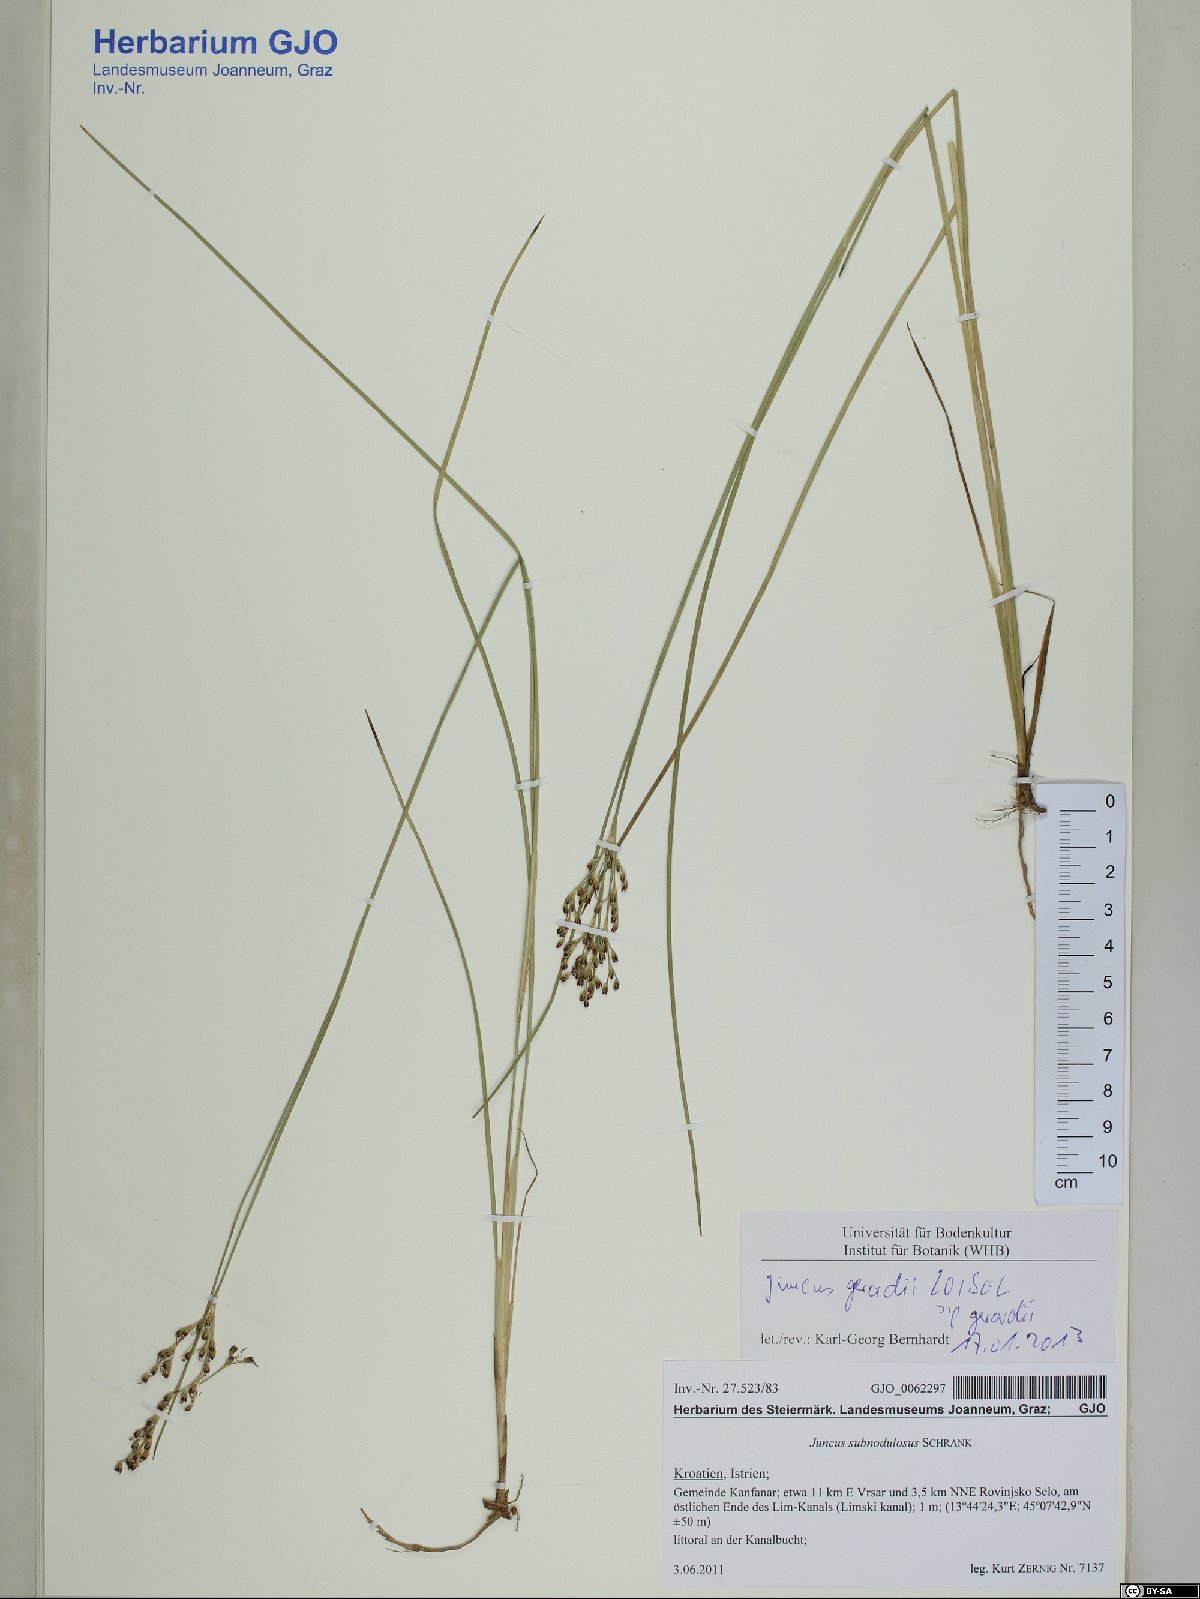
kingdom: Plantae
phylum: Tracheophyta
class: Liliopsida
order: Poales
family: Juncaceae
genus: Juncus
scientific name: Juncus gerardi
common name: Saltmarsh rush
